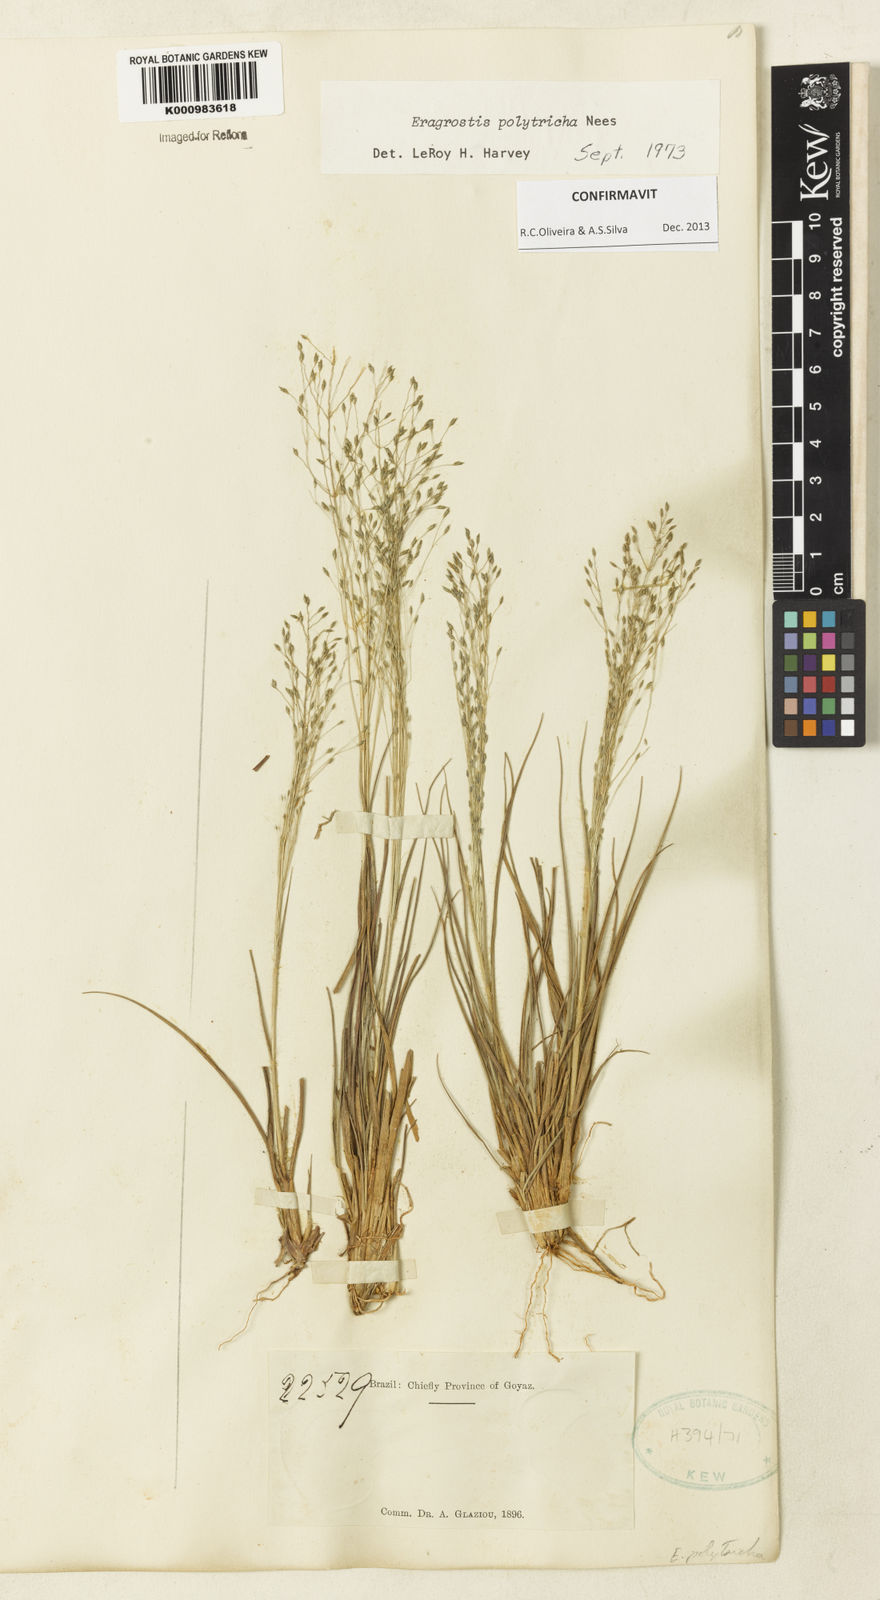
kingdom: Plantae
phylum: Tracheophyta
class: Liliopsida
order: Poales
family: Poaceae
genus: Eragrostis
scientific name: Eragrostis polytricha
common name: Hairy-sheath love grass
